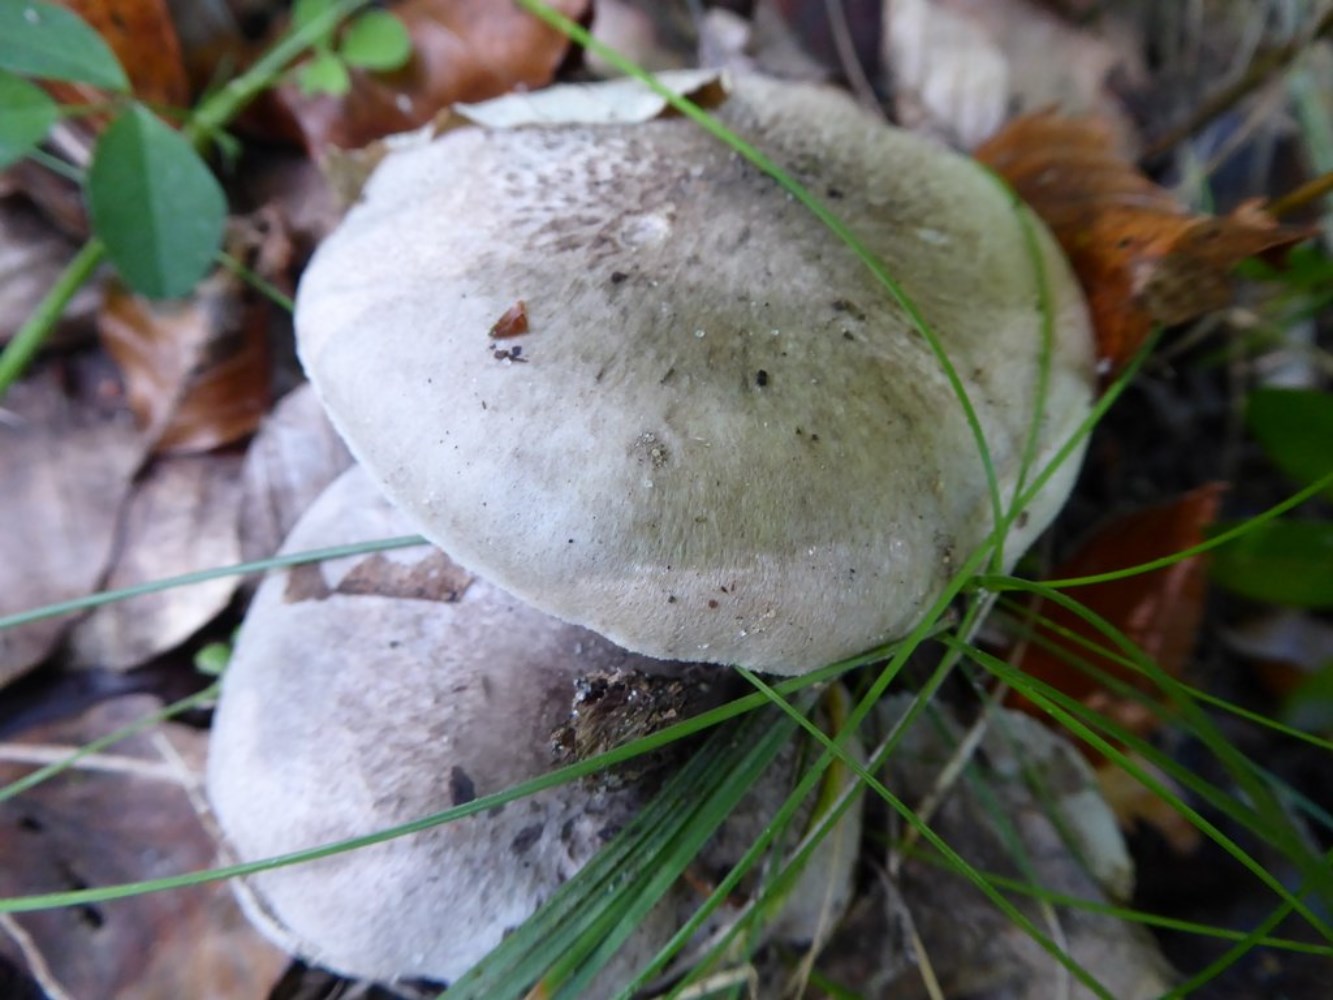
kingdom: Fungi
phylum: Basidiomycota
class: Agaricomycetes
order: Agaricales
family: Tricholomataceae
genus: Tricholoma
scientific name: Tricholoma
